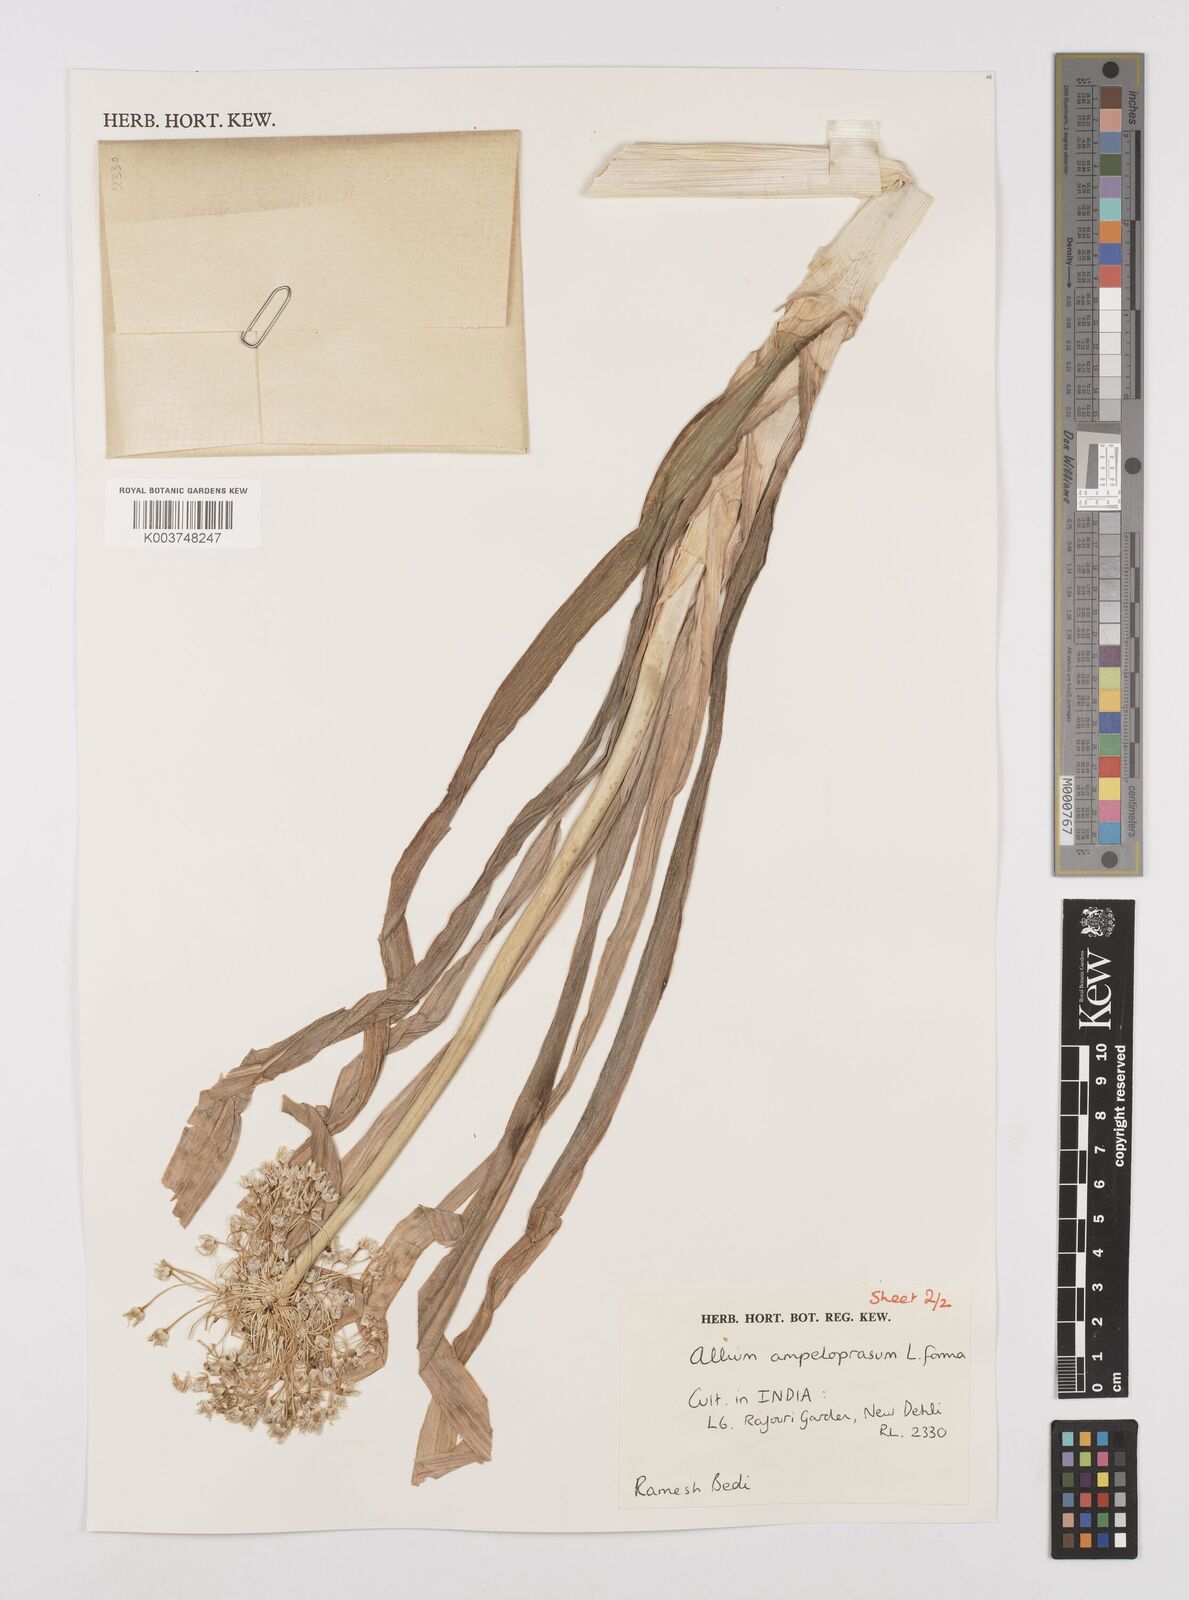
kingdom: Plantae
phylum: Tracheophyta
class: Liliopsida
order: Asparagales
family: Amaryllidaceae
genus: Allium
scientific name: Allium ampeloprasum
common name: Wild leek
